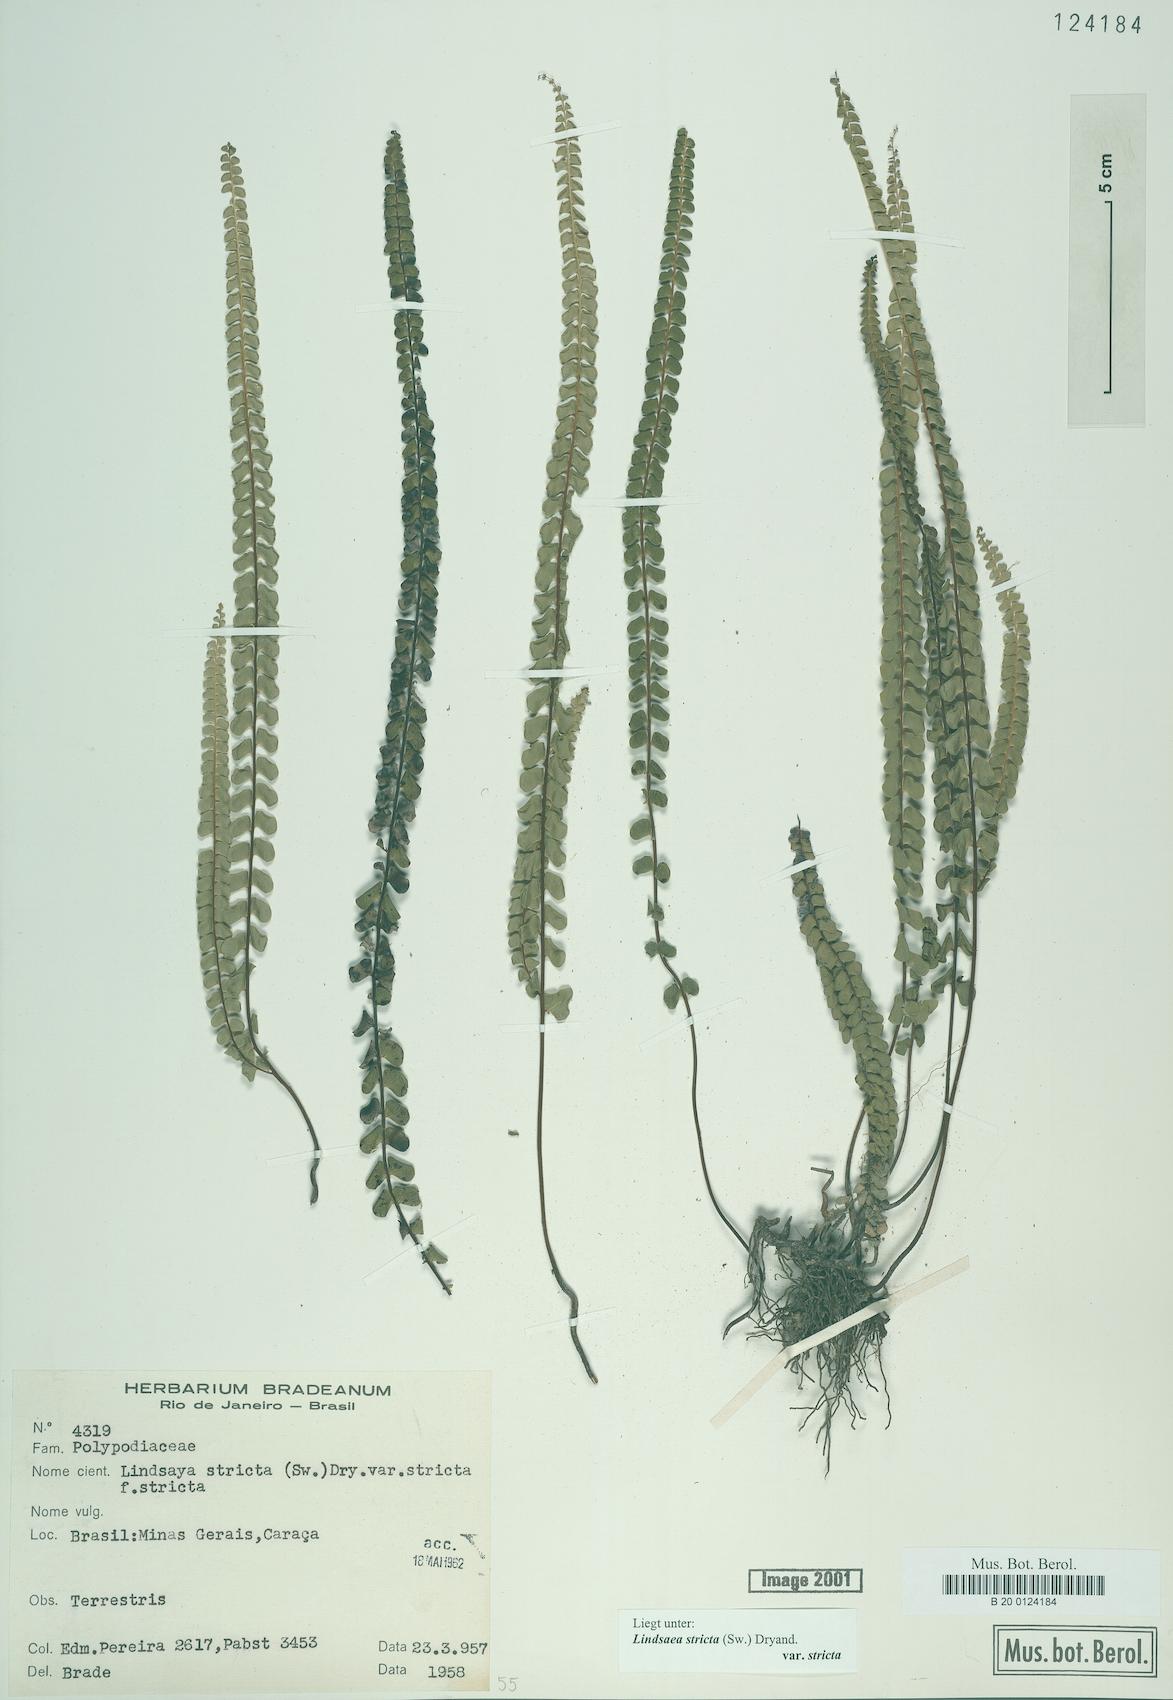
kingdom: Plantae
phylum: Tracheophyta
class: Polypodiopsida
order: Polypodiales
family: Lindsaeaceae
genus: Lindsaea
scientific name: Lindsaea stricta
